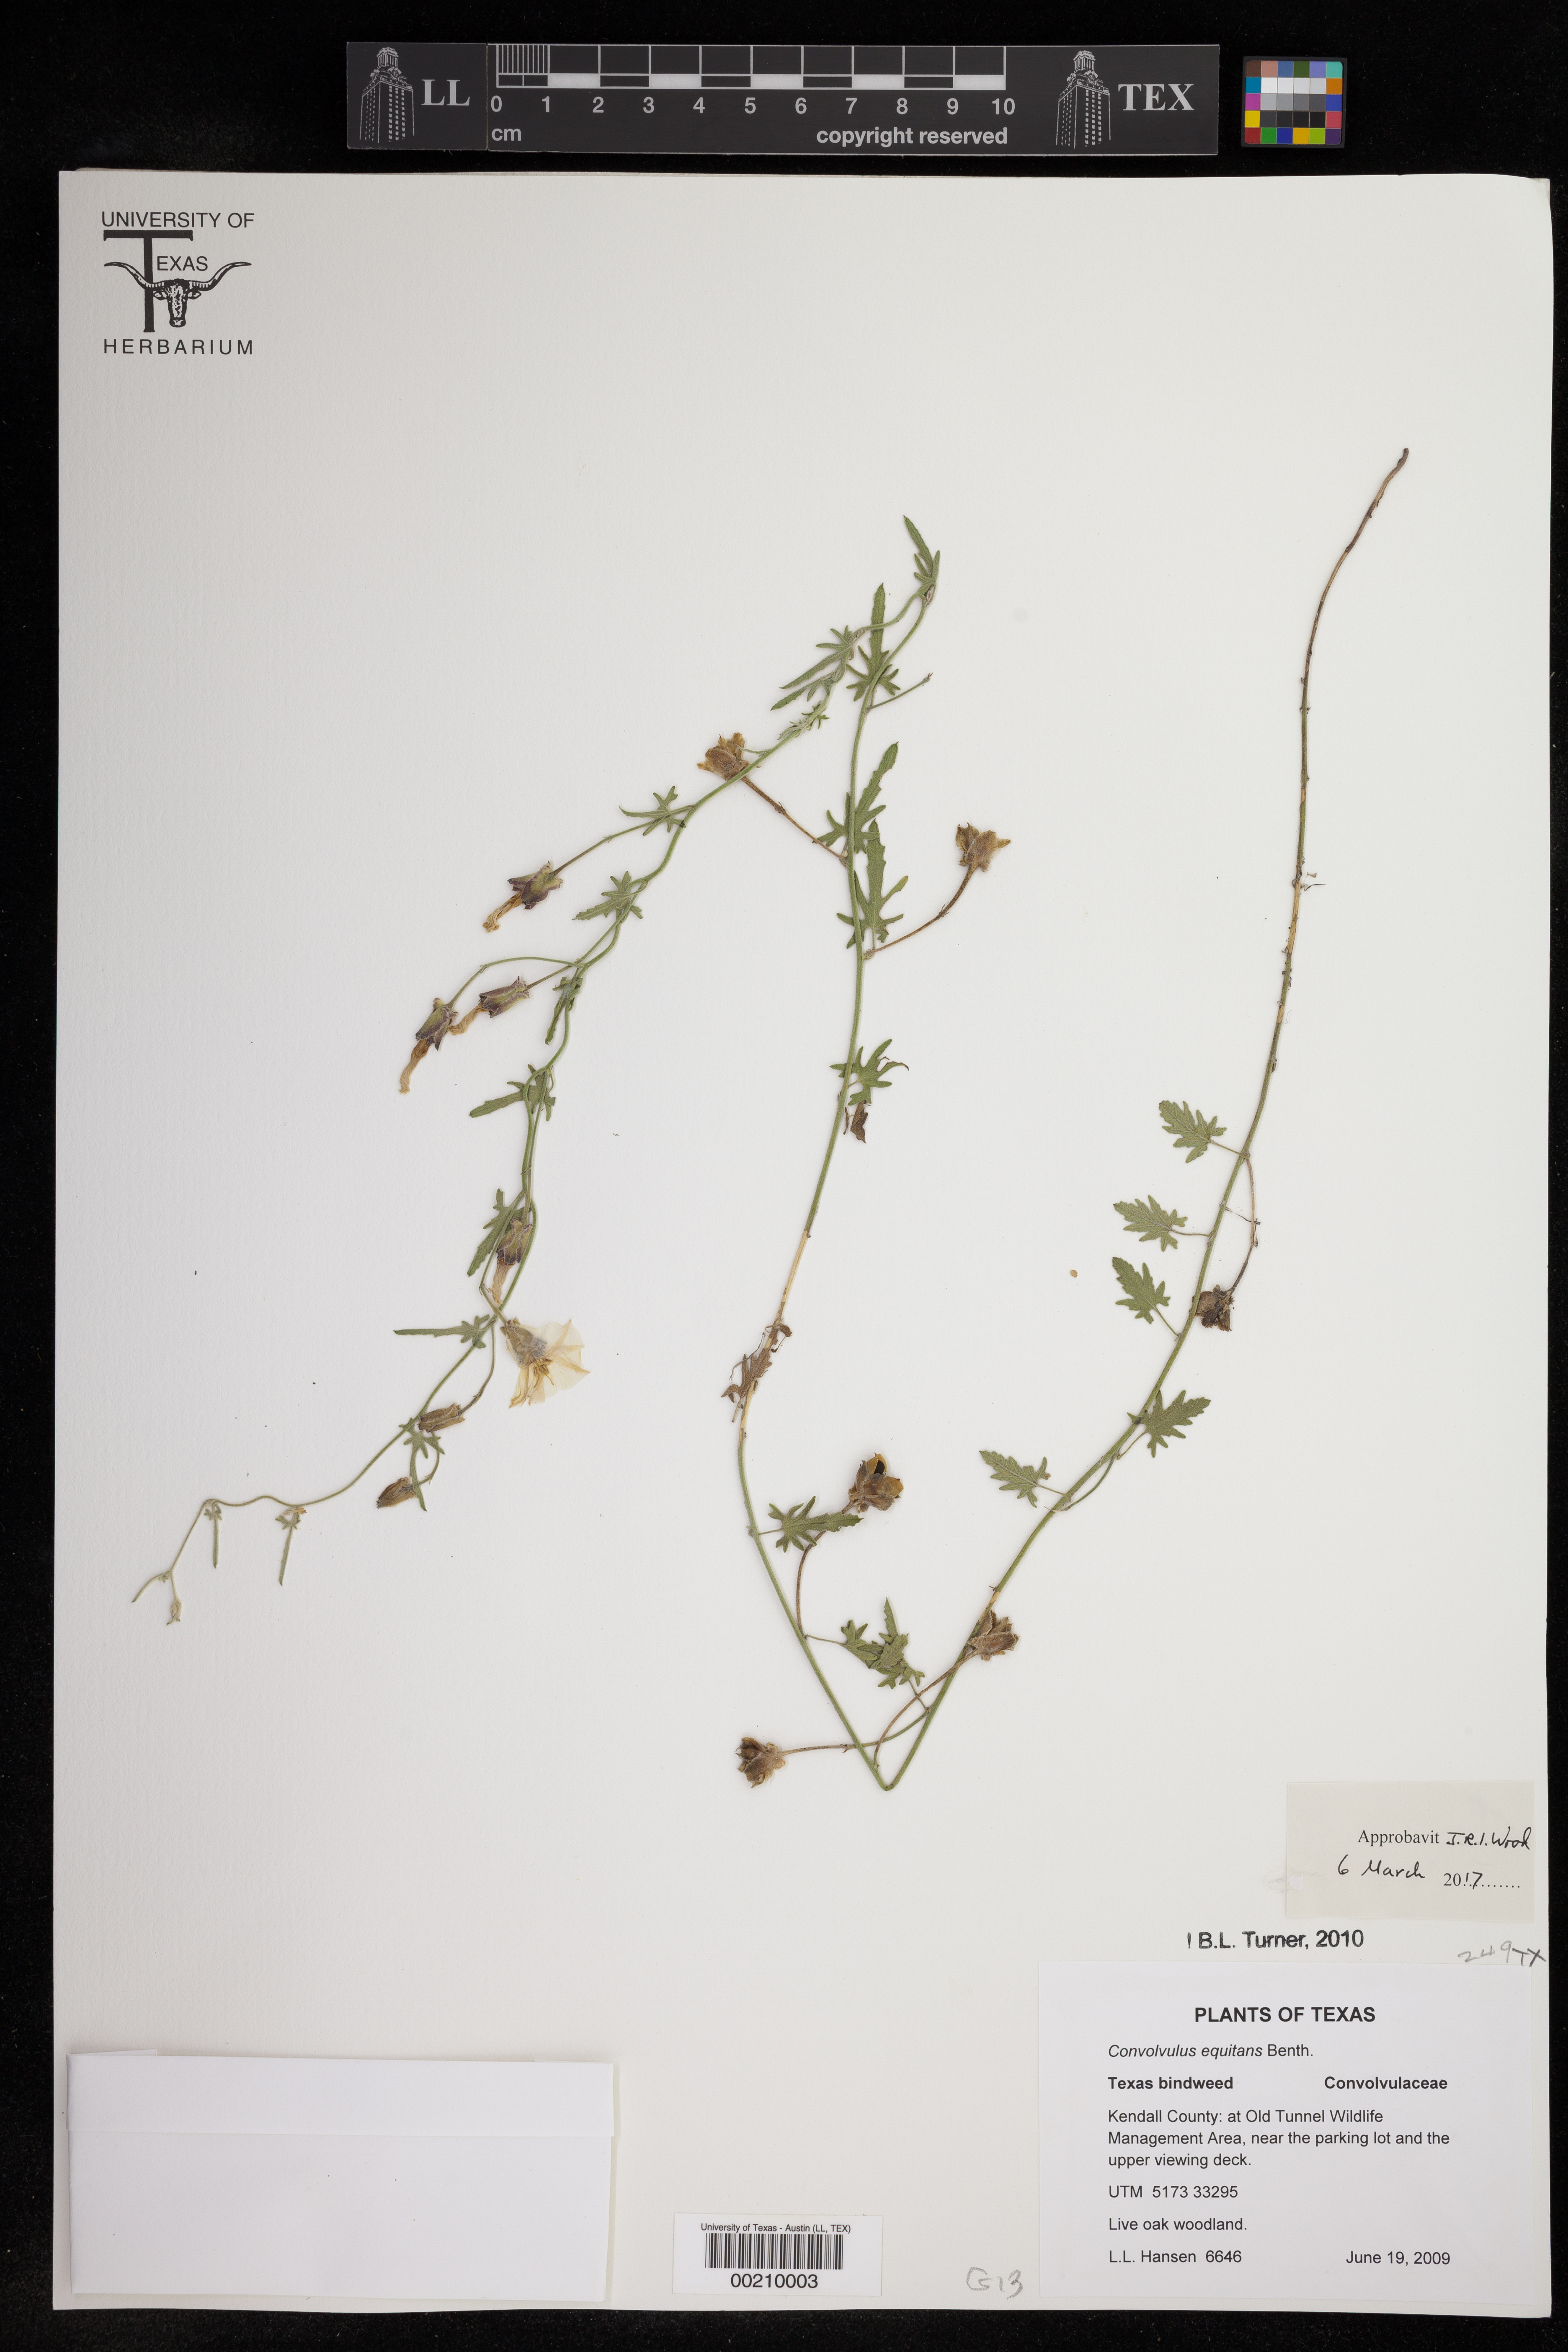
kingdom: Plantae
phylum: Tracheophyta
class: Magnoliopsida
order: Solanales
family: Convolvulaceae
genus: Convolvulus
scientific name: Convolvulus equitans
